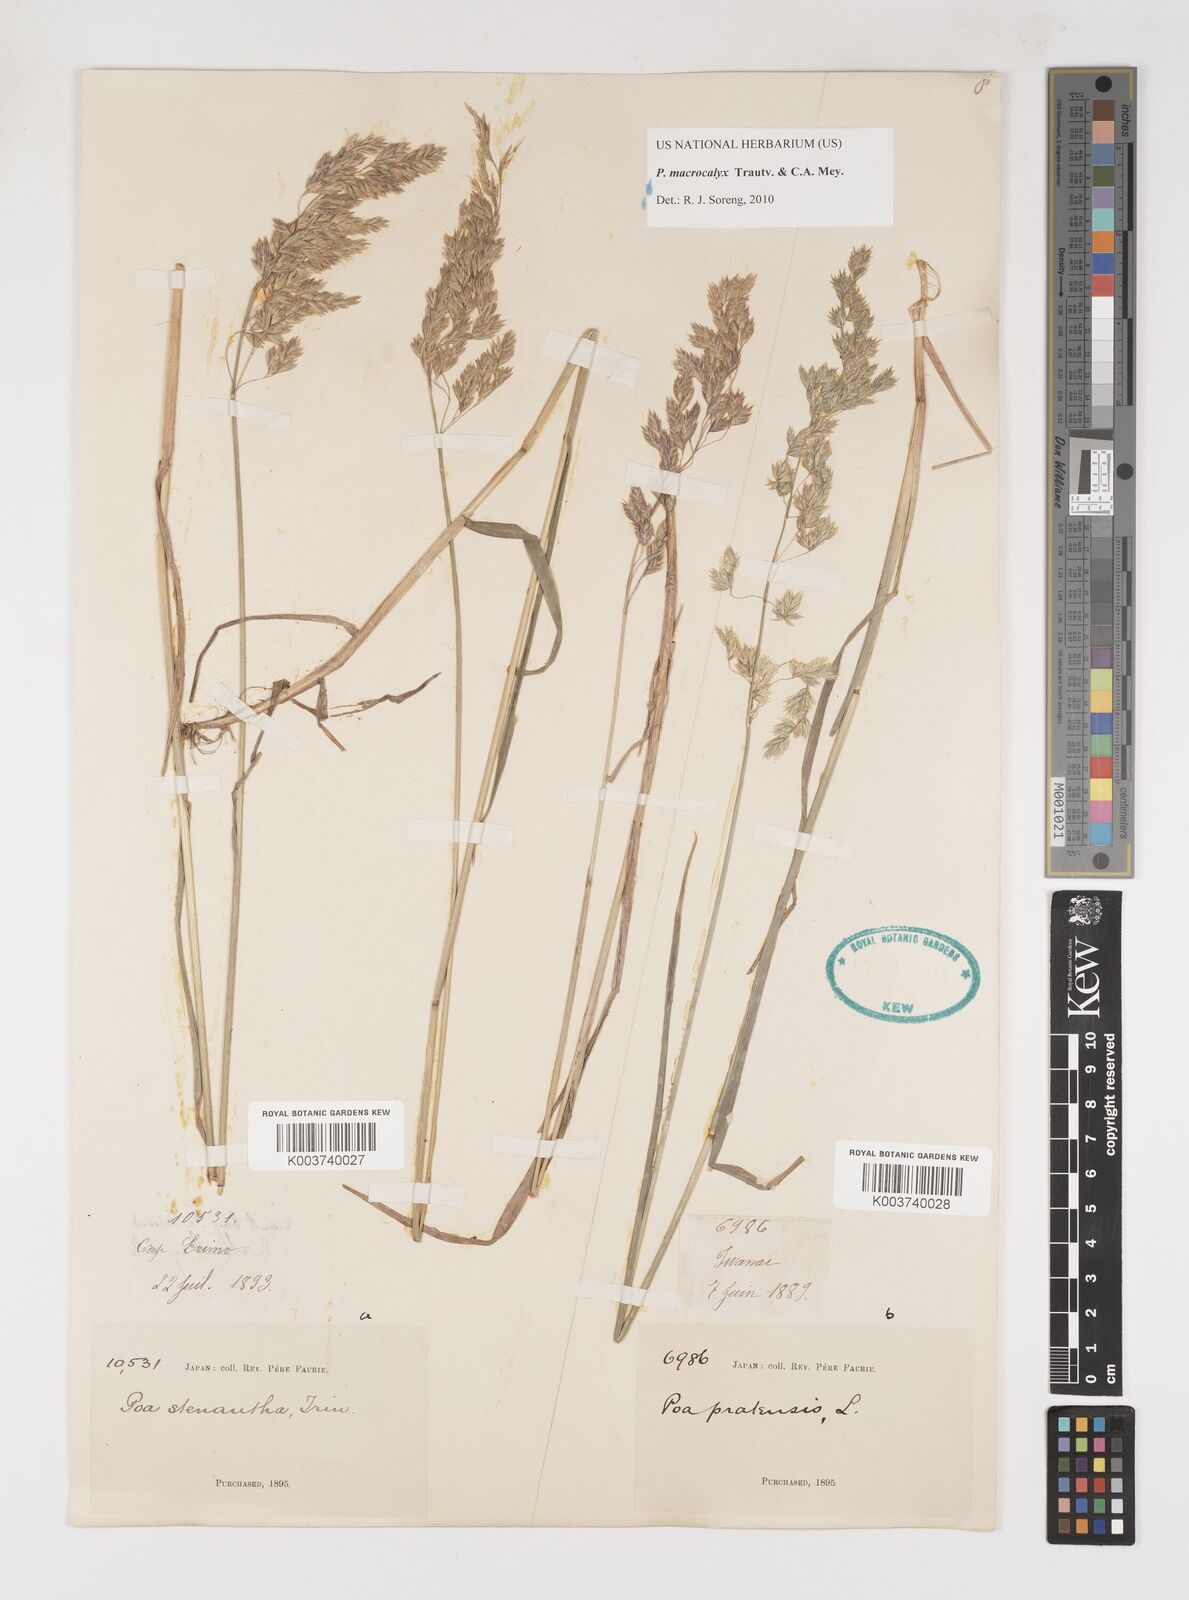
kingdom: Plantae
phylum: Tracheophyta
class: Liliopsida
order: Poales
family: Poaceae
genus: Poa
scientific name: Poa macrocalyx
